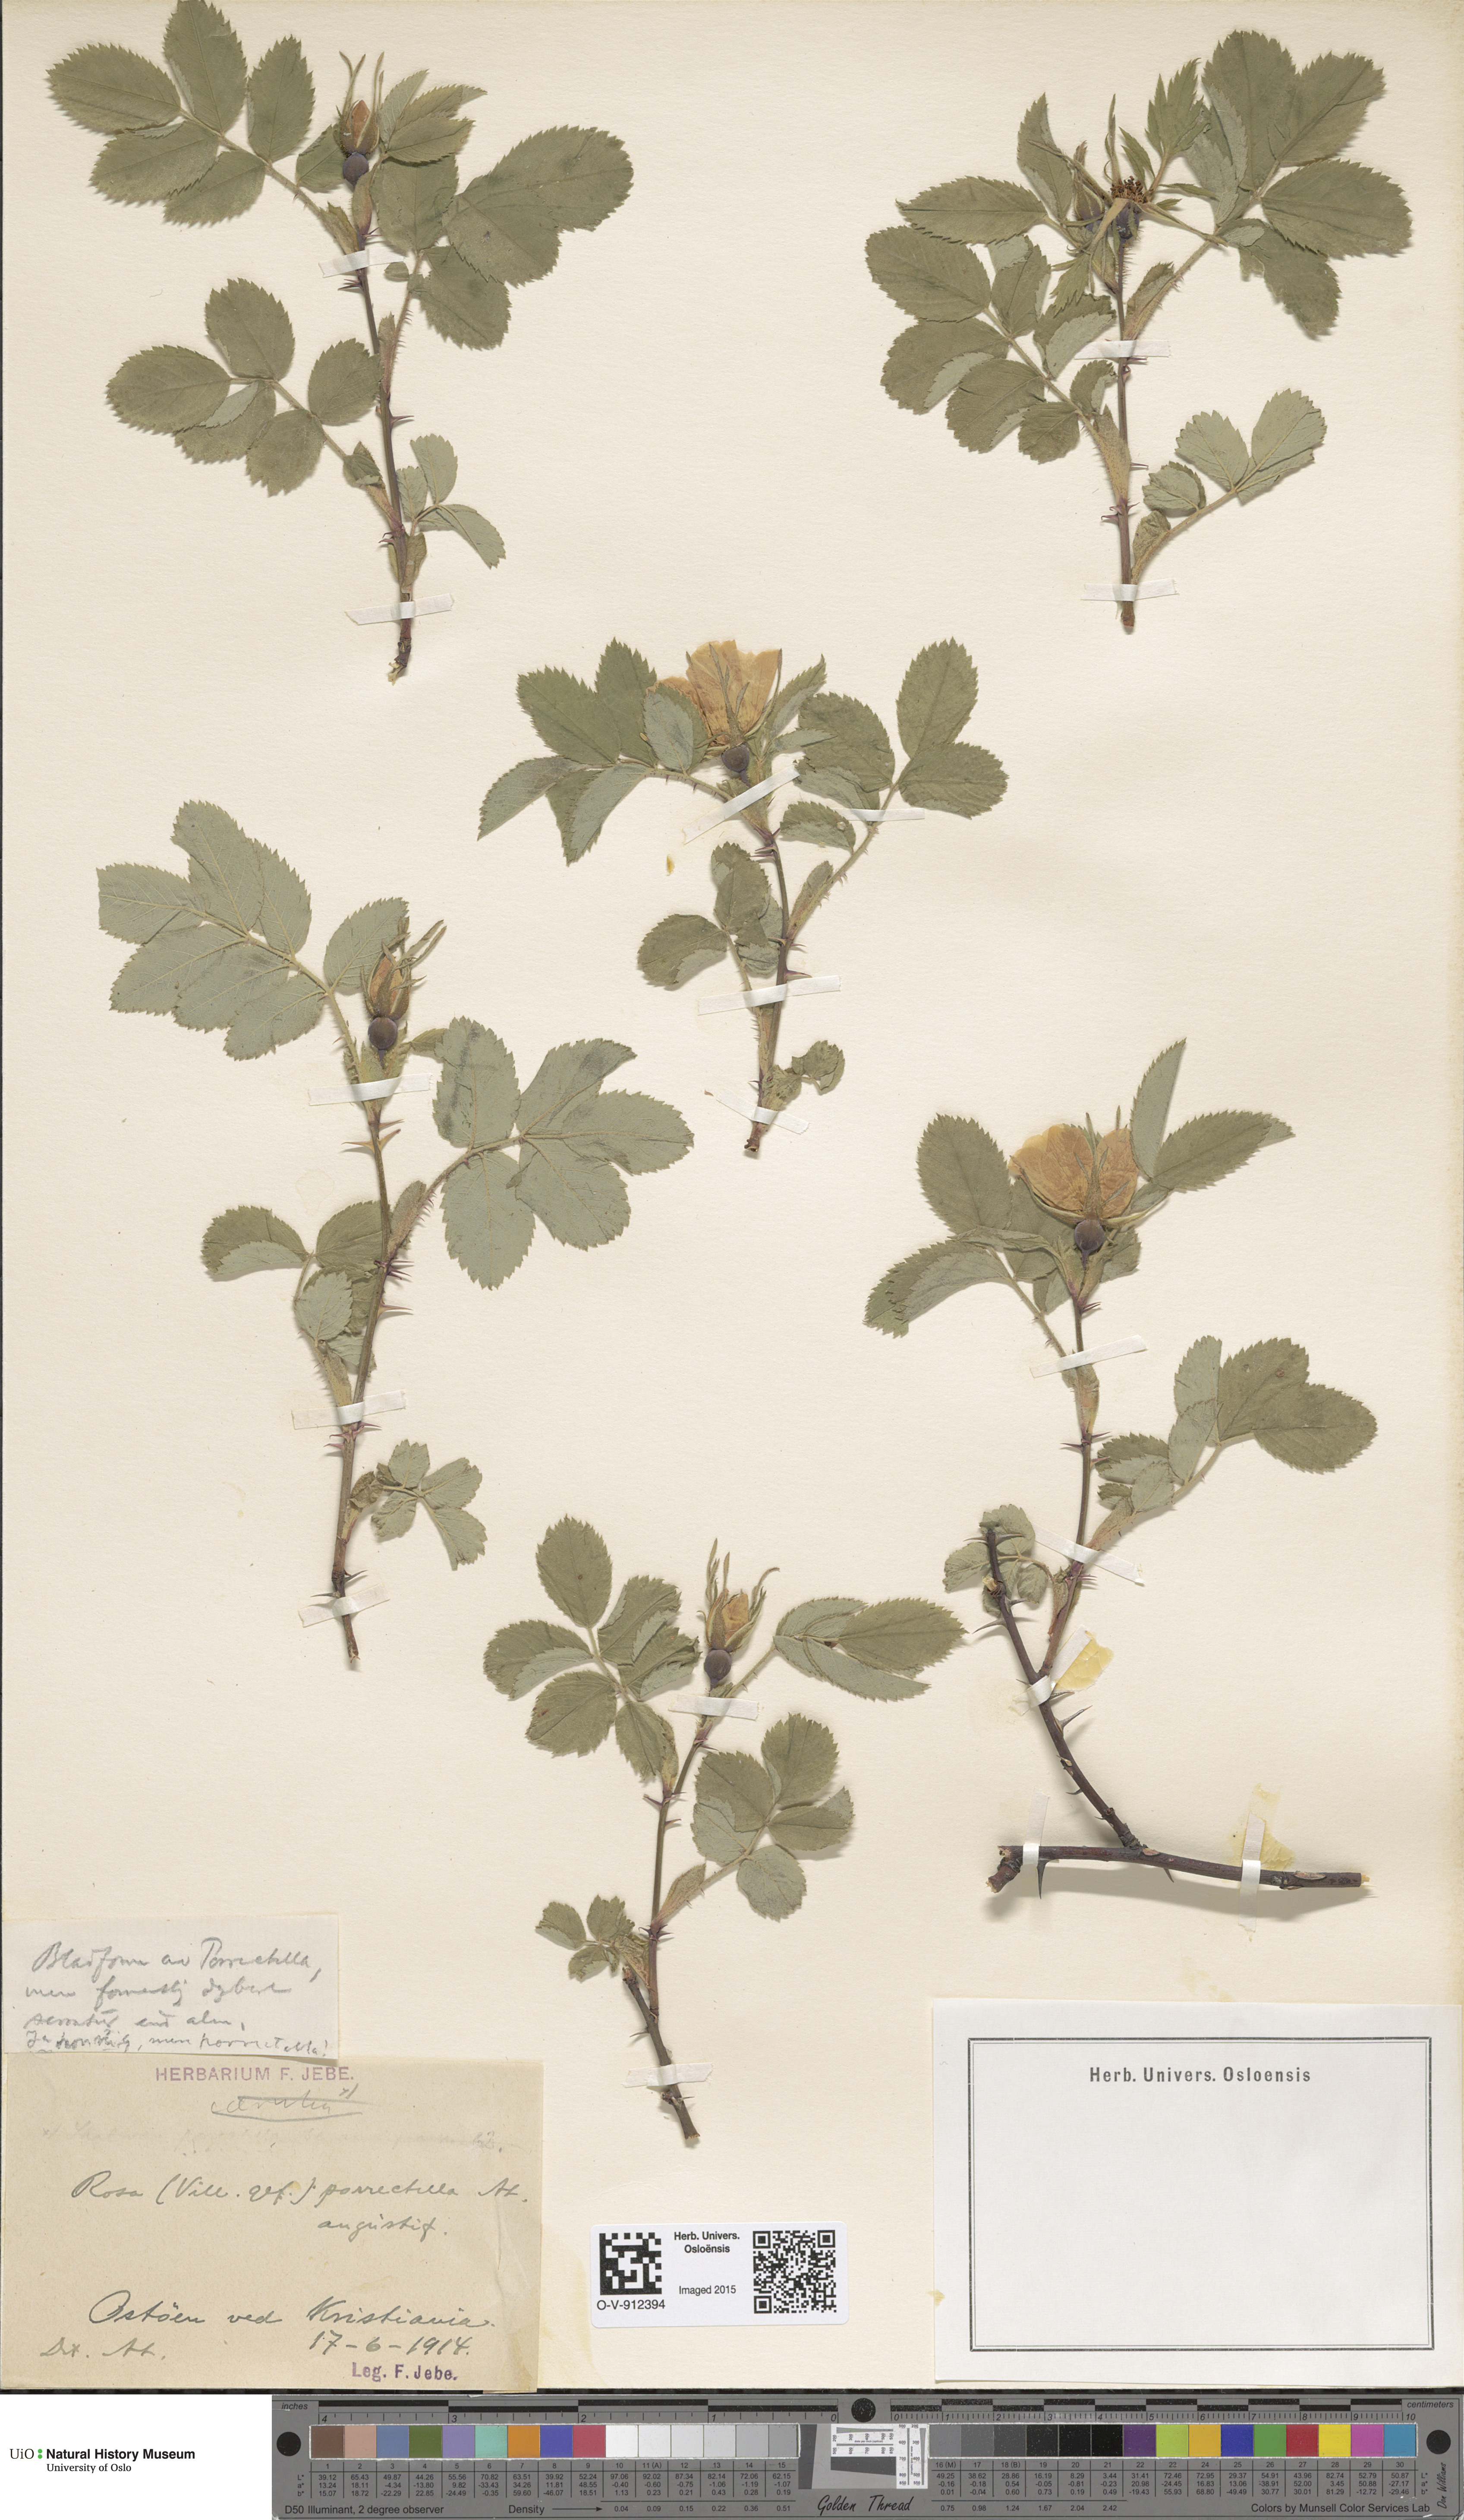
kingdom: Plantae
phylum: Tracheophyta
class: Magnoliopsida
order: Rosales
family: Rosaceae
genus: Rosa
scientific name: Rosa mollis
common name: Rose
